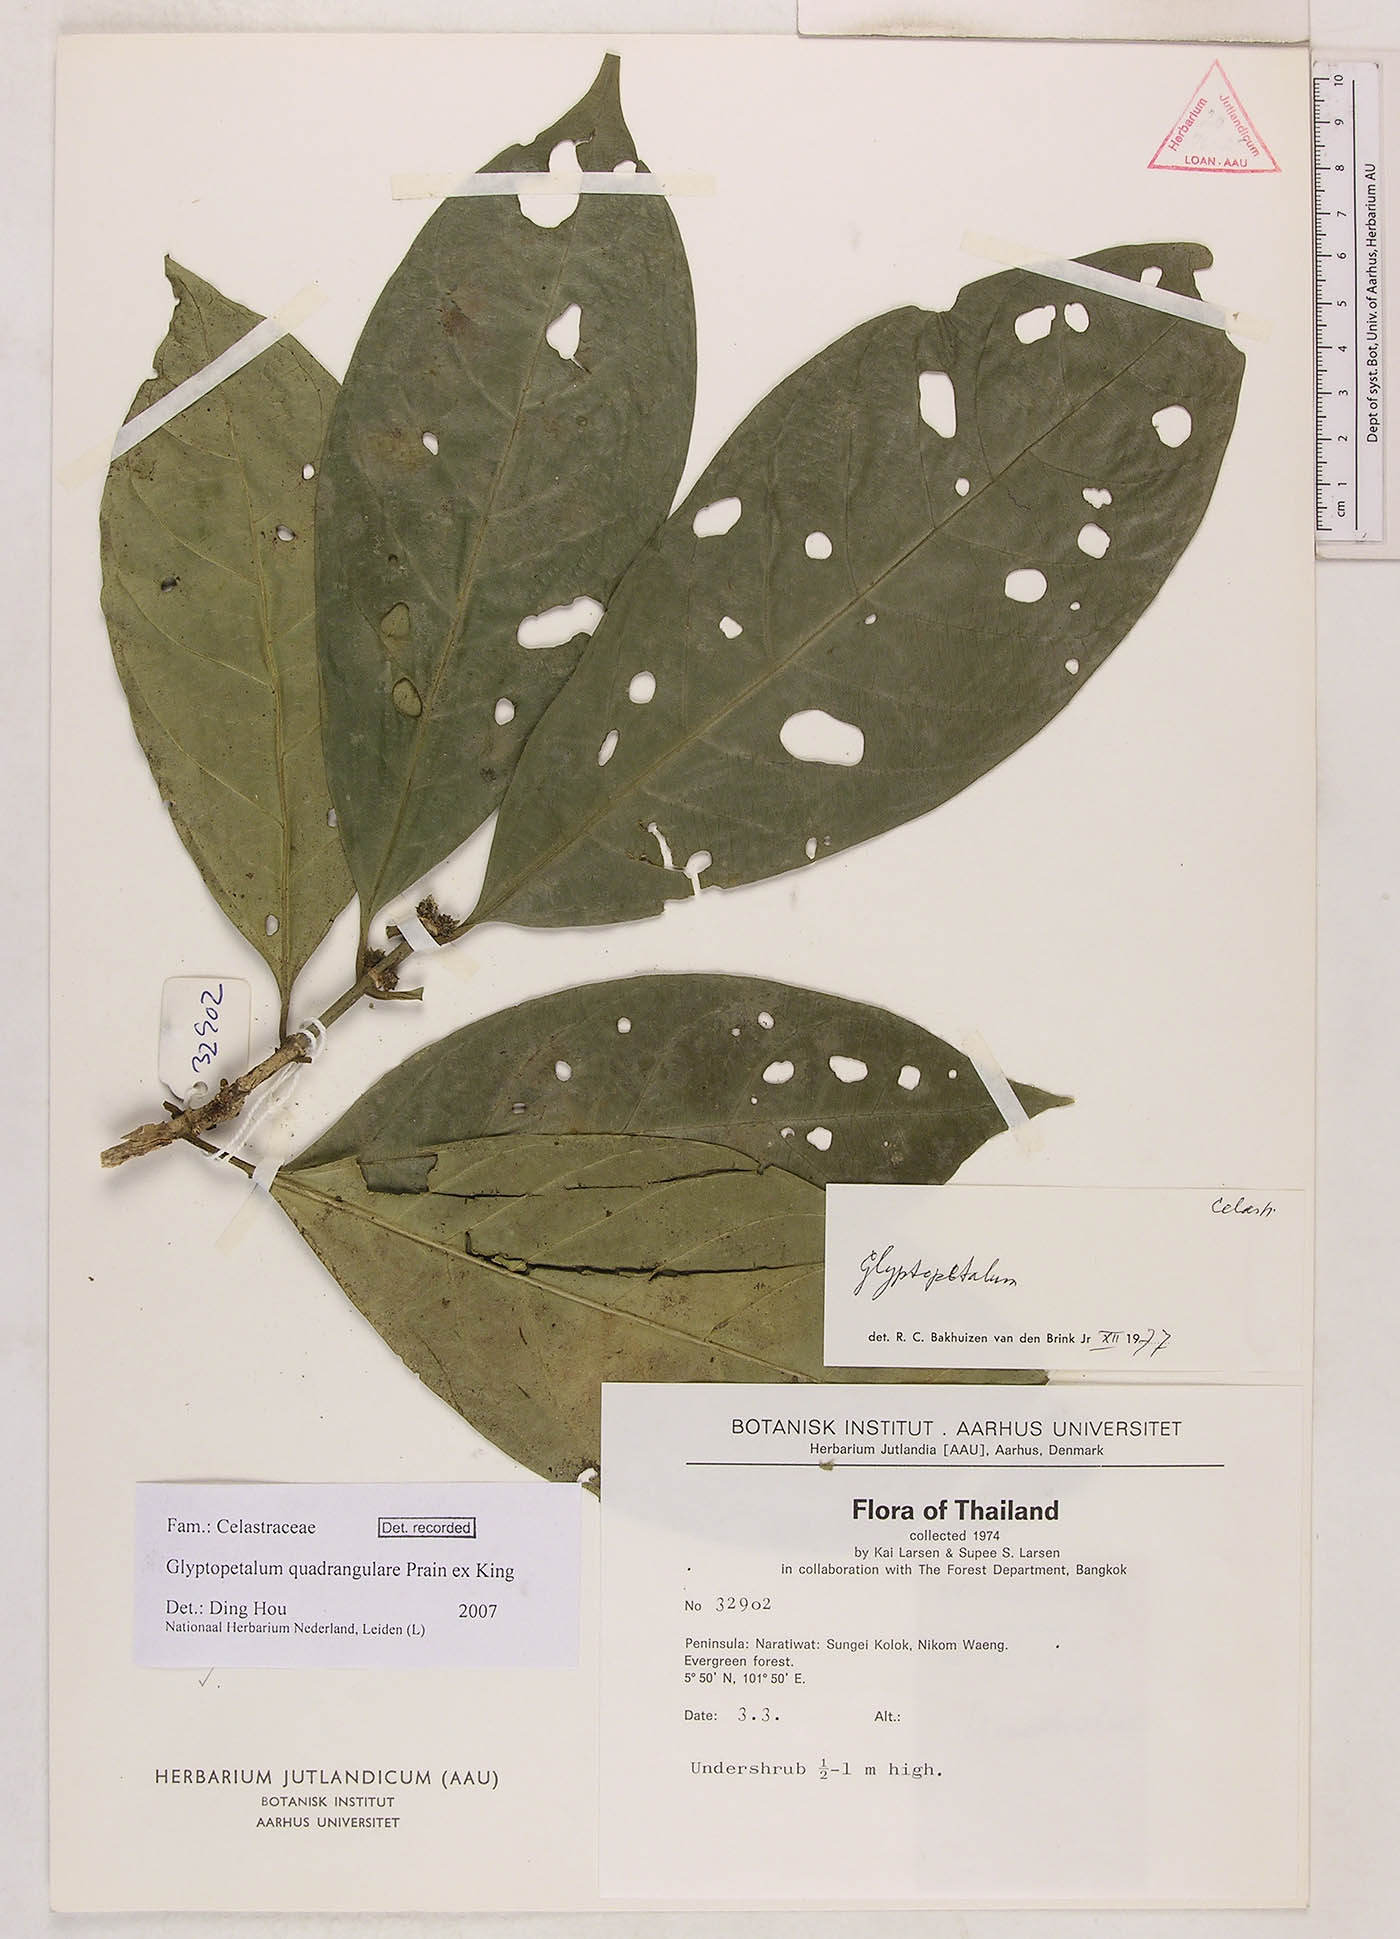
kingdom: Plantae
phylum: Tracheophyta
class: Magnoliopsida
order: Celastrales
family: Celastraceae
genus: Euonymus
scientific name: Euonymus quadrangularis
